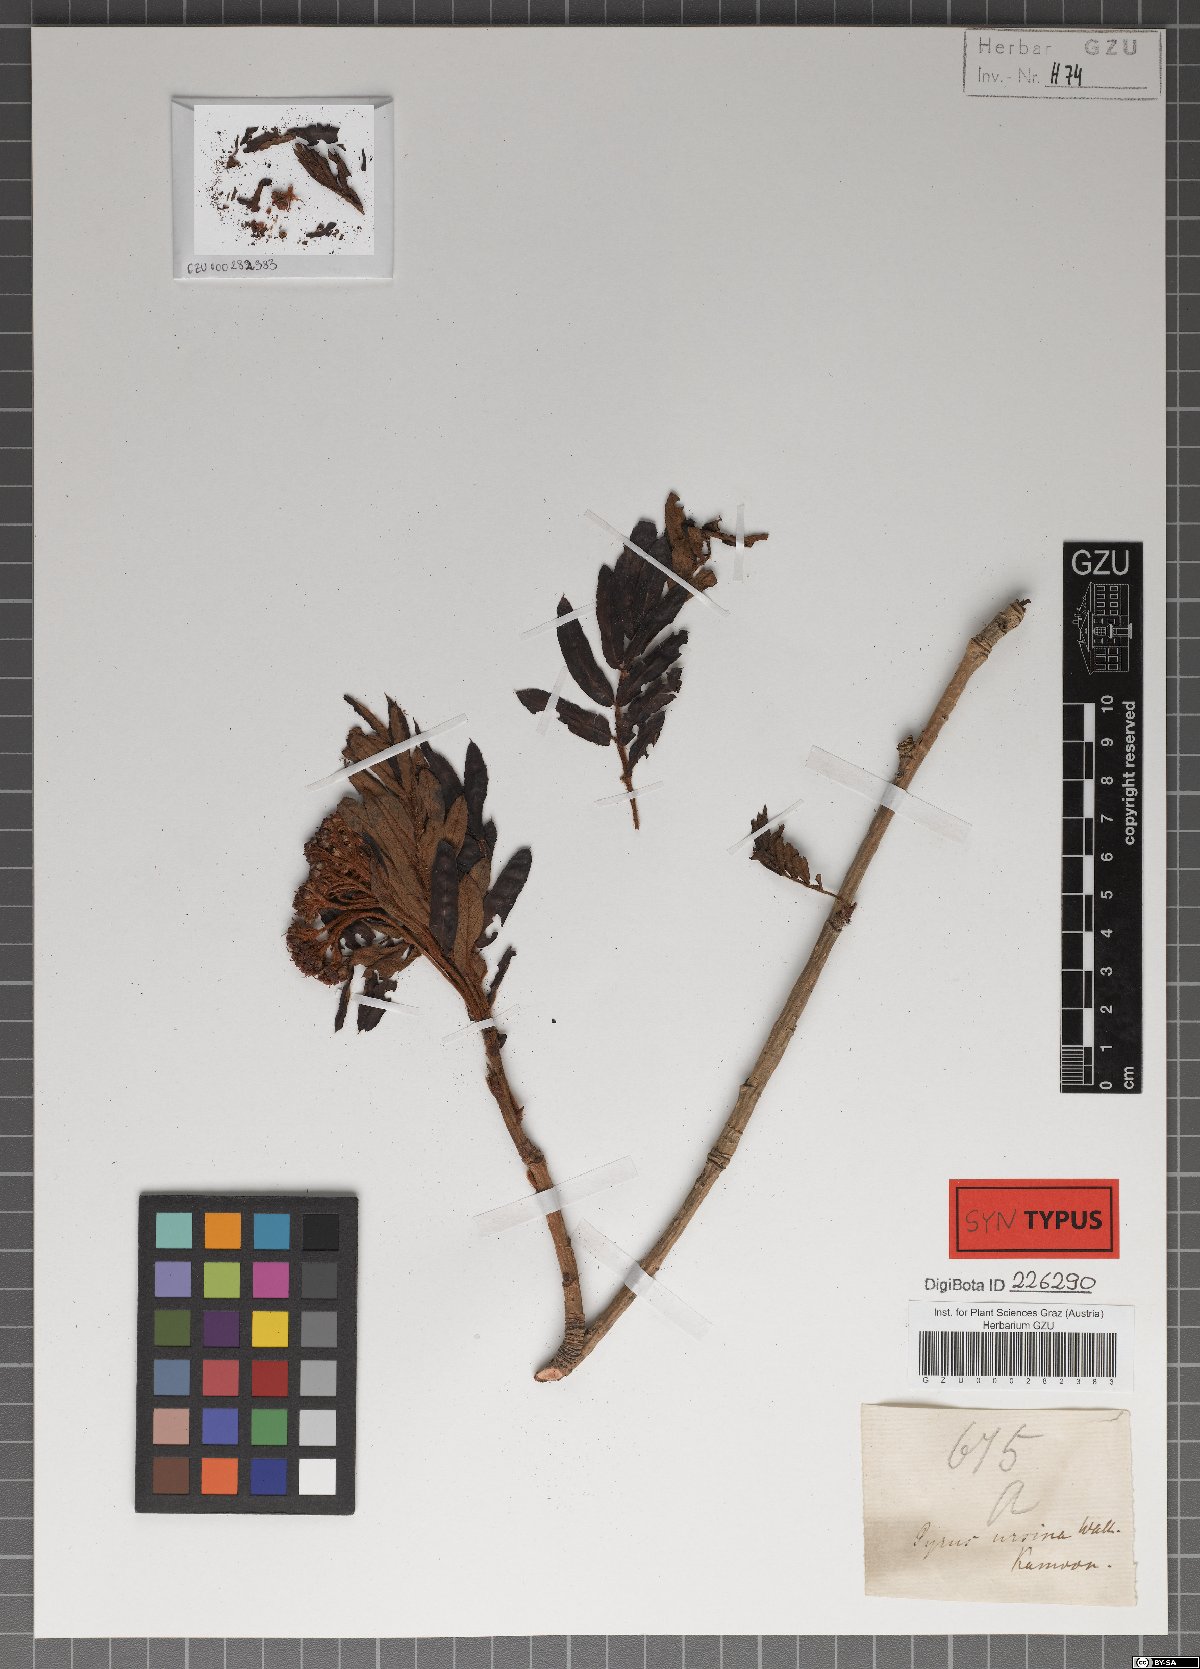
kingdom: Plantae
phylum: Tracheophyta
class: Magnoliopsida
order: Rosales
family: Rosaceae
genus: Sorbus
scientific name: Sorbus ursina
